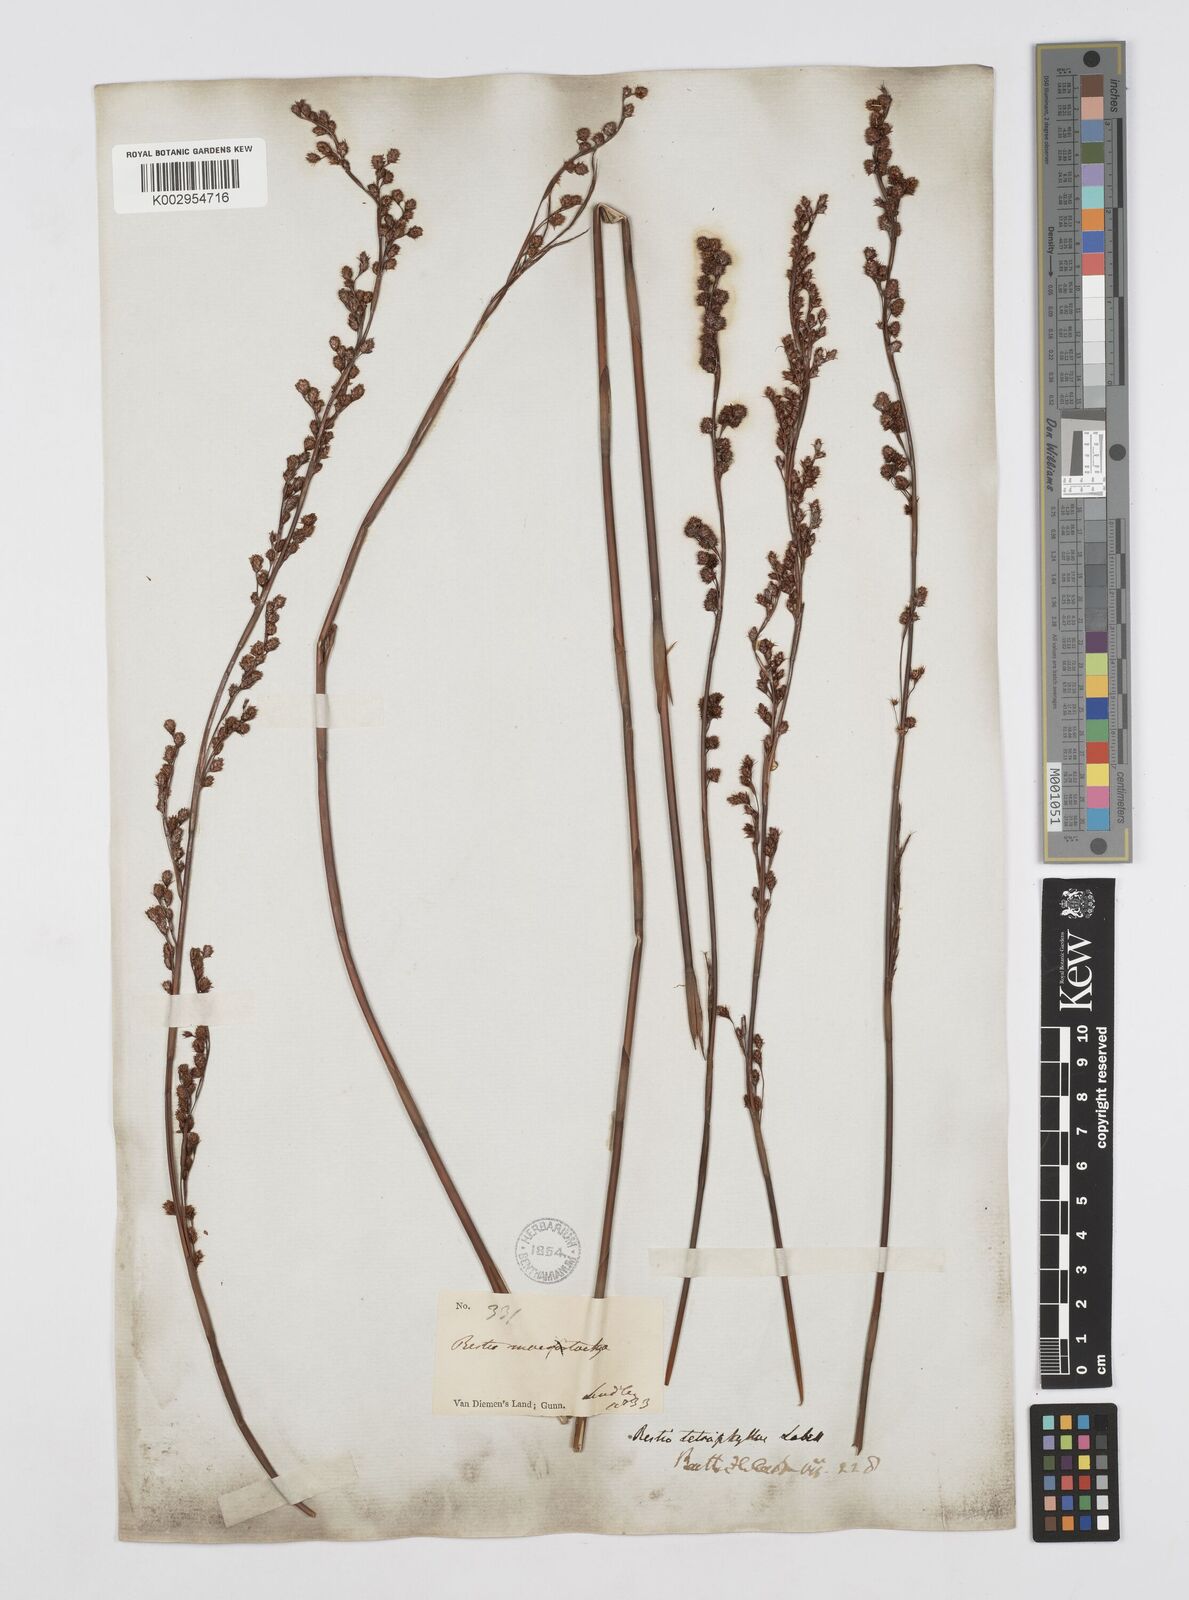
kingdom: Plantae
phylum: Tracheophyta
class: Liliopsida
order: Poales
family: Restionaceae
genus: Baloskion
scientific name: Baloskion tetraphyllum
